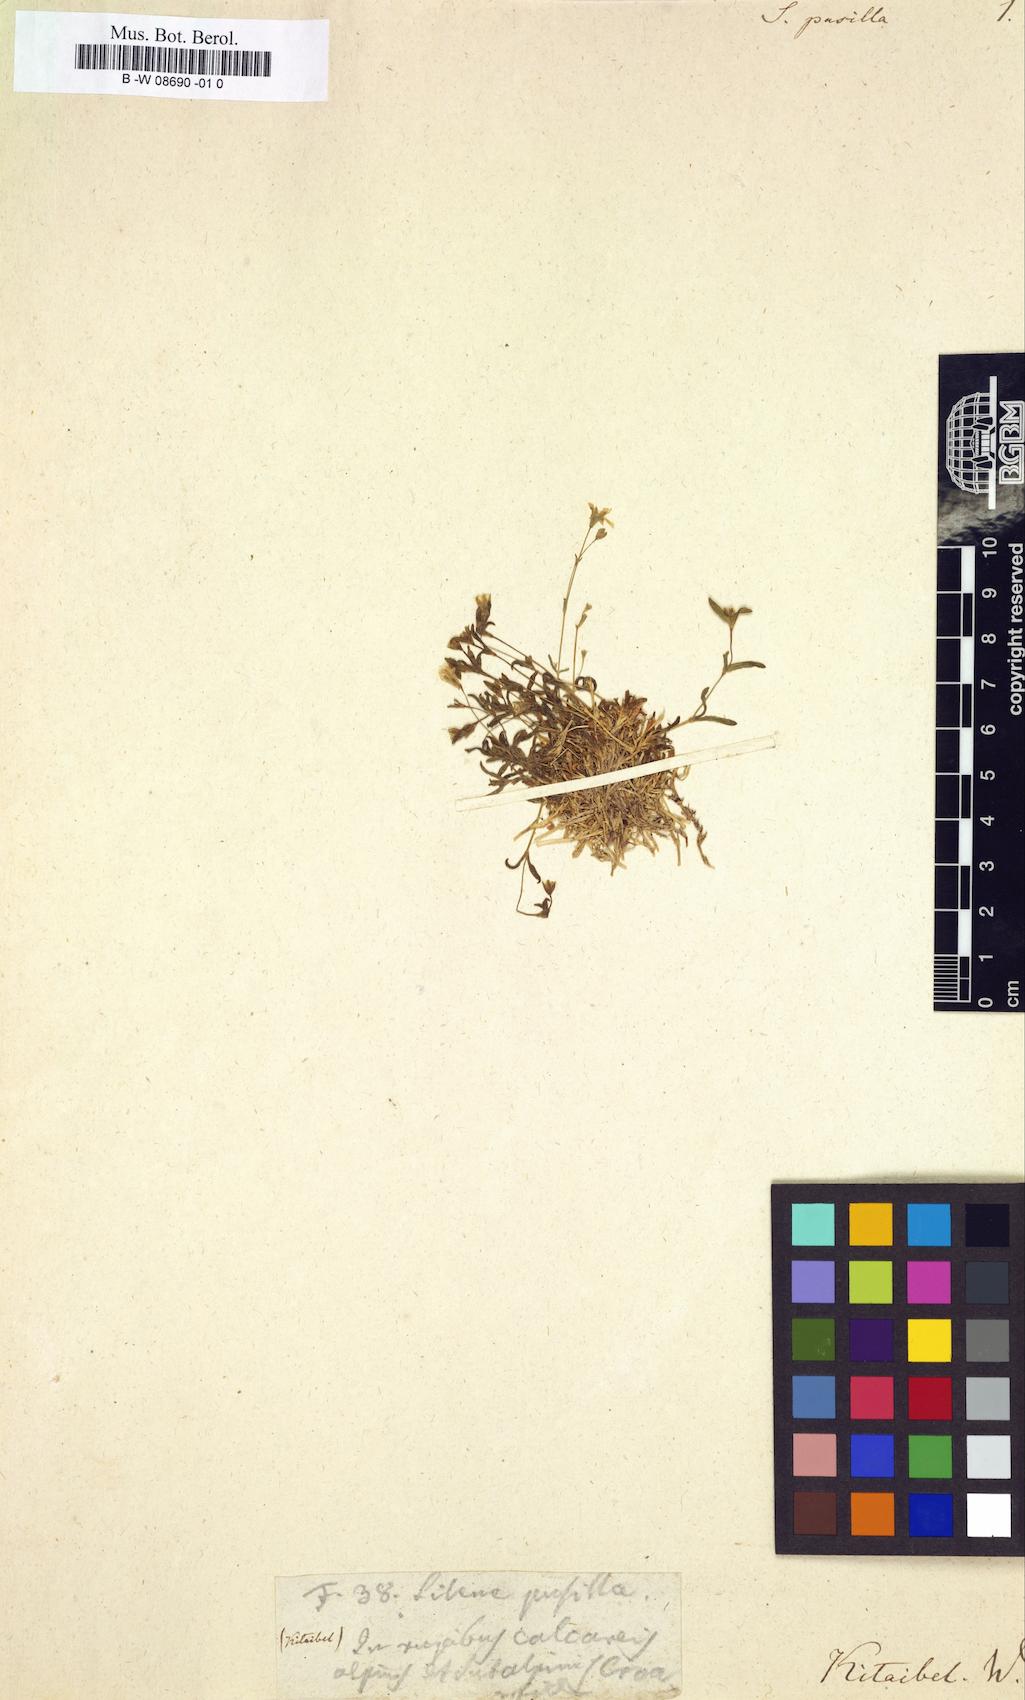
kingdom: Plantae
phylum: Tracheophyta
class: Magnoliopsida
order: Caryophyllales
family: Caryophyllaceae
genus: Heliosperma
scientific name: Heliosperma pusillum
